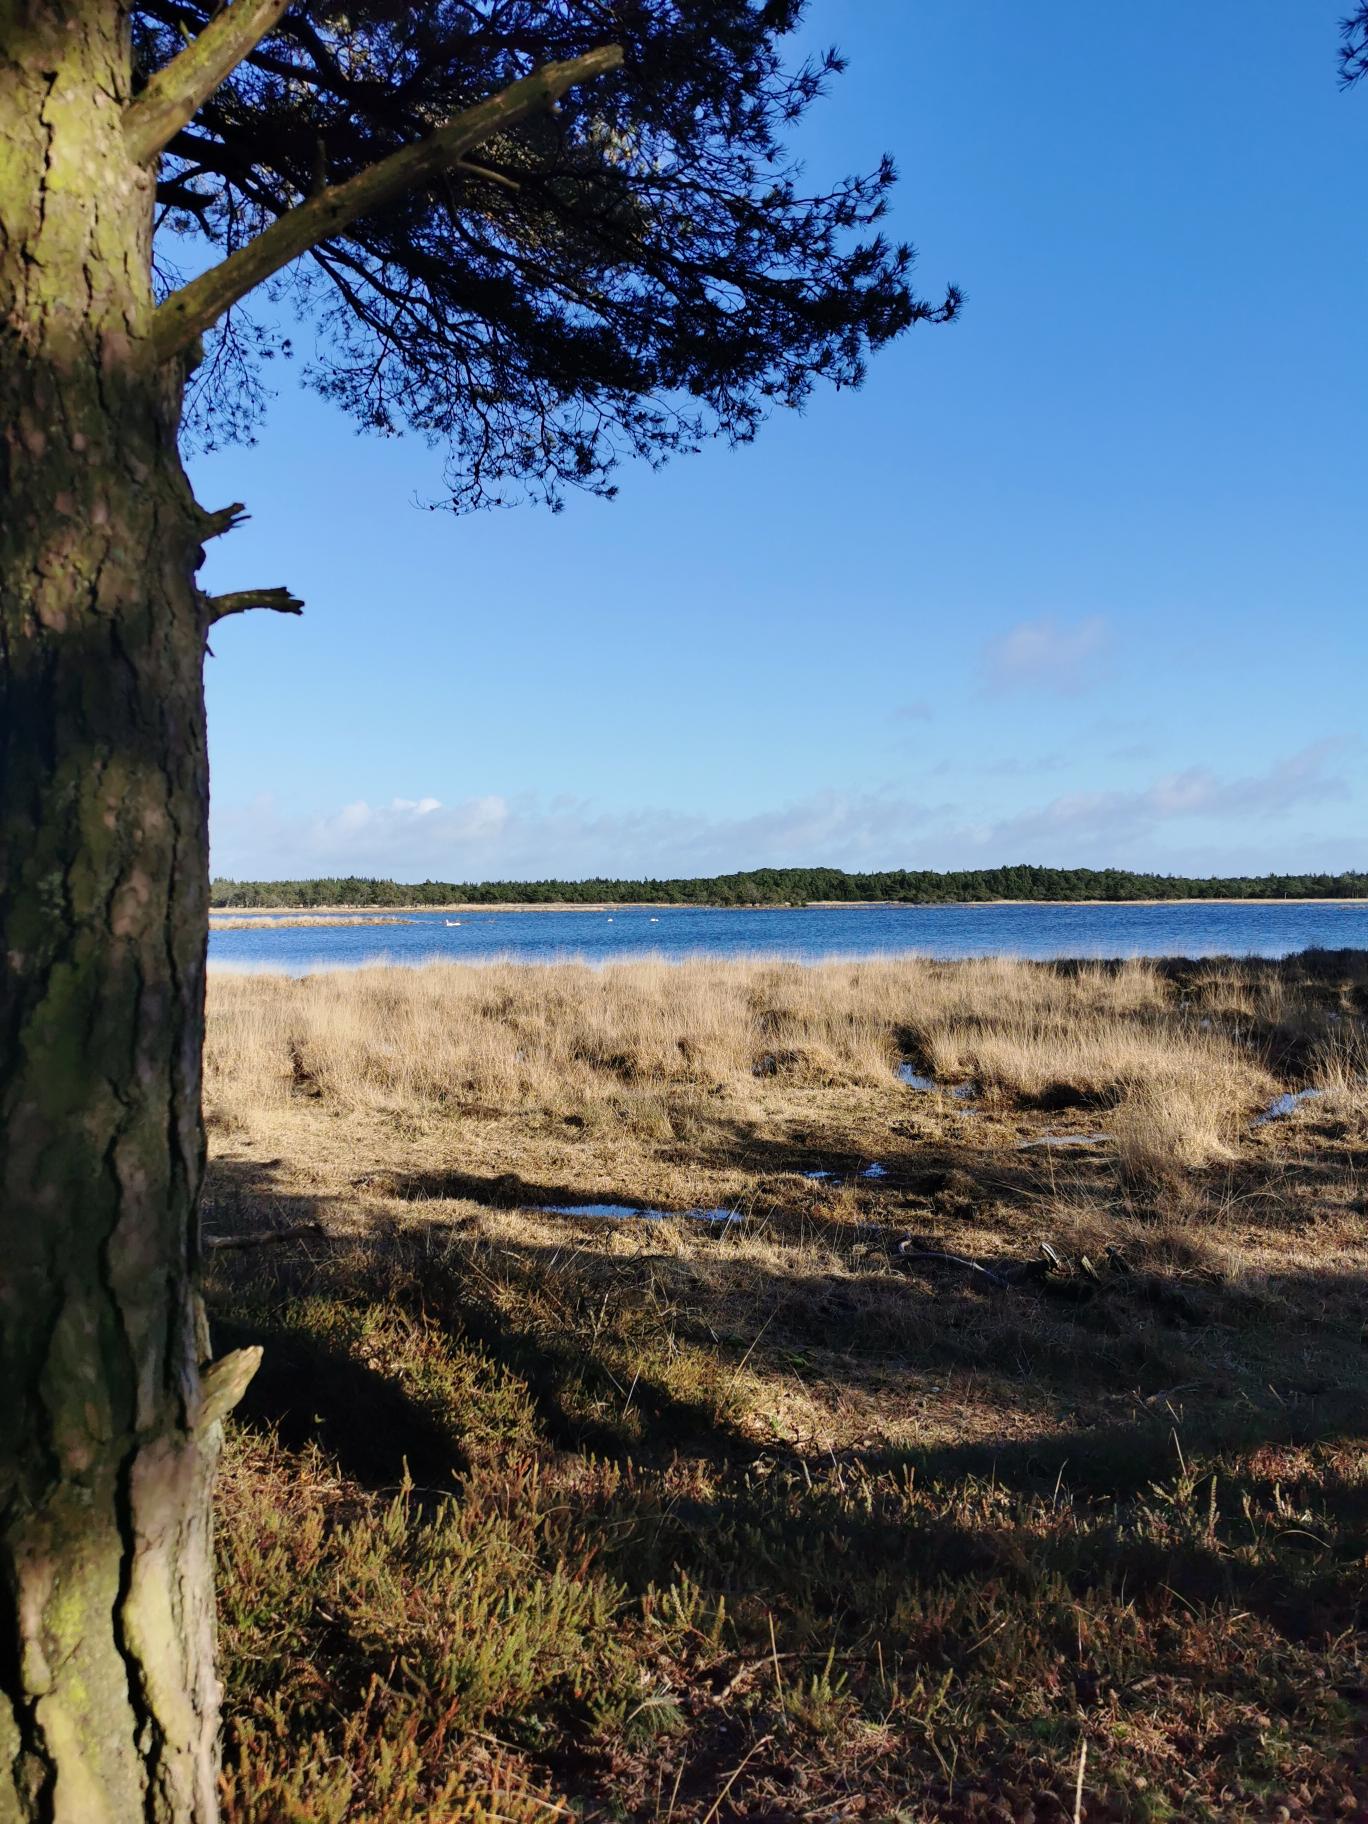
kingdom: Animalia
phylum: Chordata
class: Aves
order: Anseriformes
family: Anatidae
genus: Cygnus
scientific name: Cygnus cygnus
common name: Sangsvane
